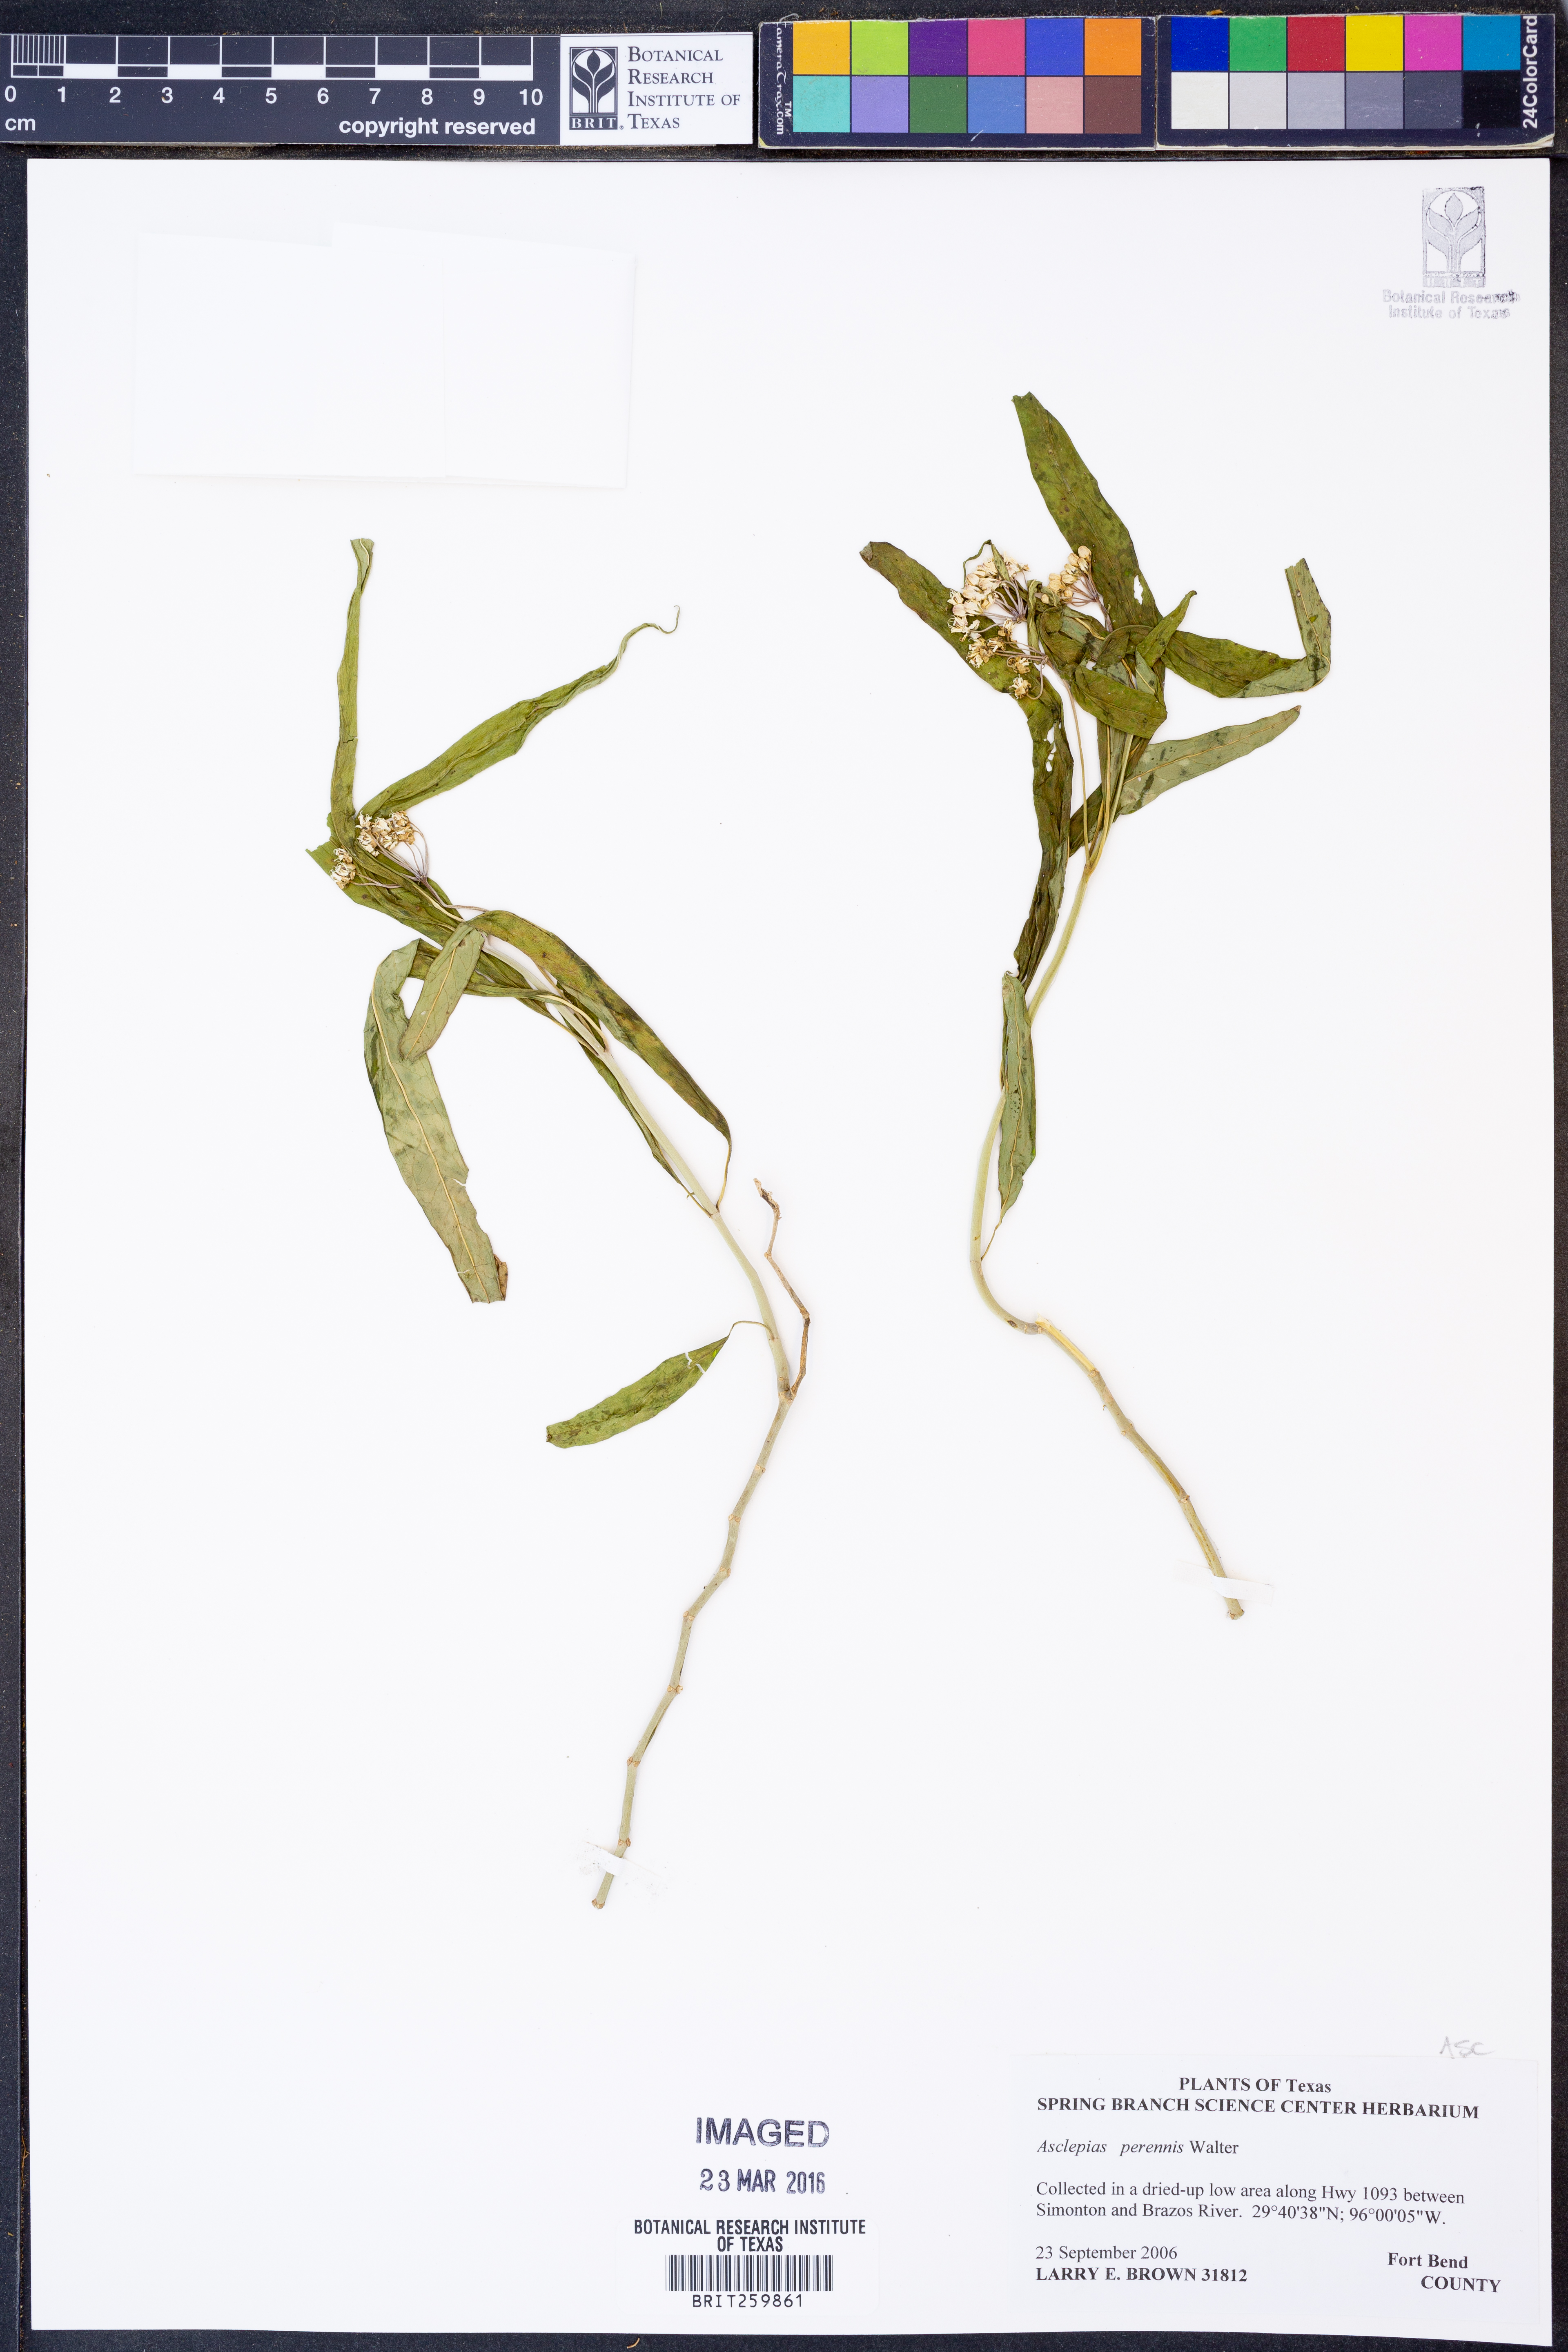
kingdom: Plantae
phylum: Tracheophyta
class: Magnoliopsida
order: Gentianales
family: Apocynaceae
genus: Asclepias
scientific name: Asclepias perennis
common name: Smooth-seed milkweed
